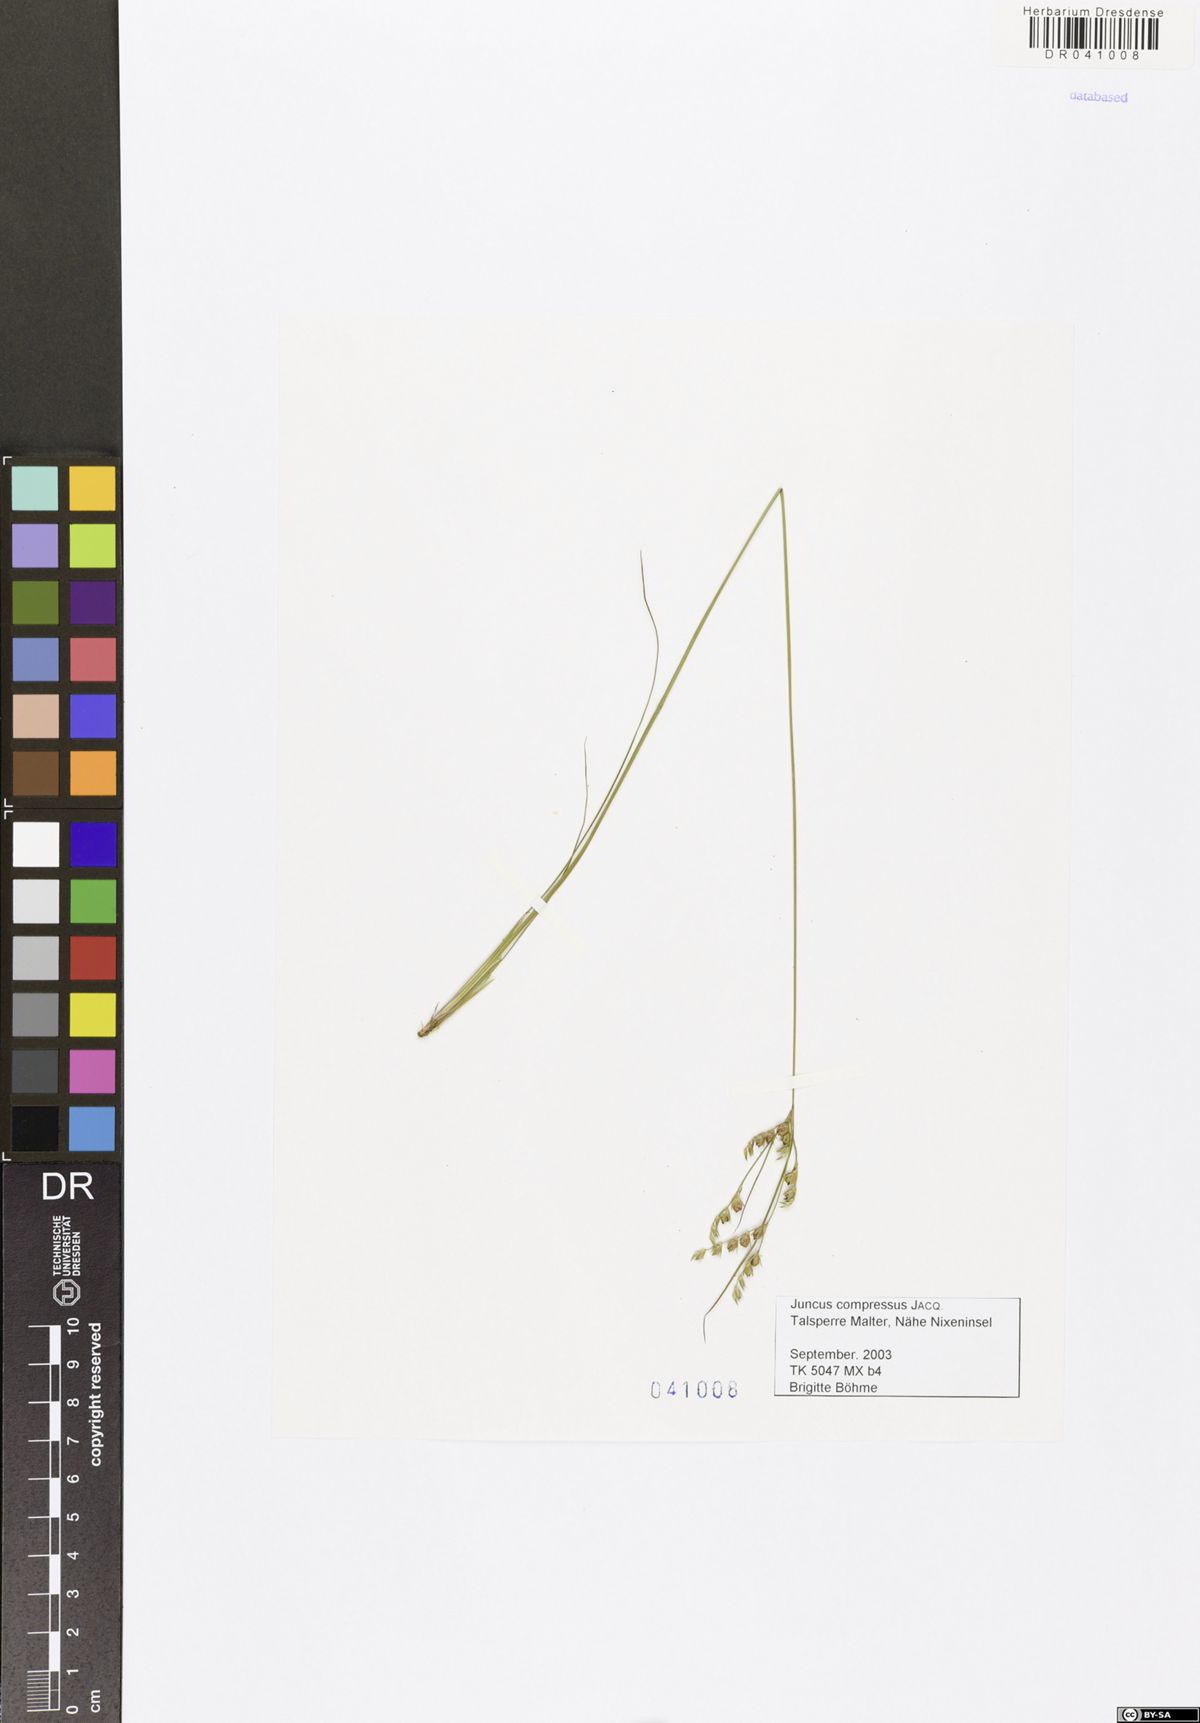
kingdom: Plantae
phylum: Tracheophyta
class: Liliopsida
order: Poales
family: Juncaceae
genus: Juncus
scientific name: Juncus compressus
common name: Round-fruited rush
